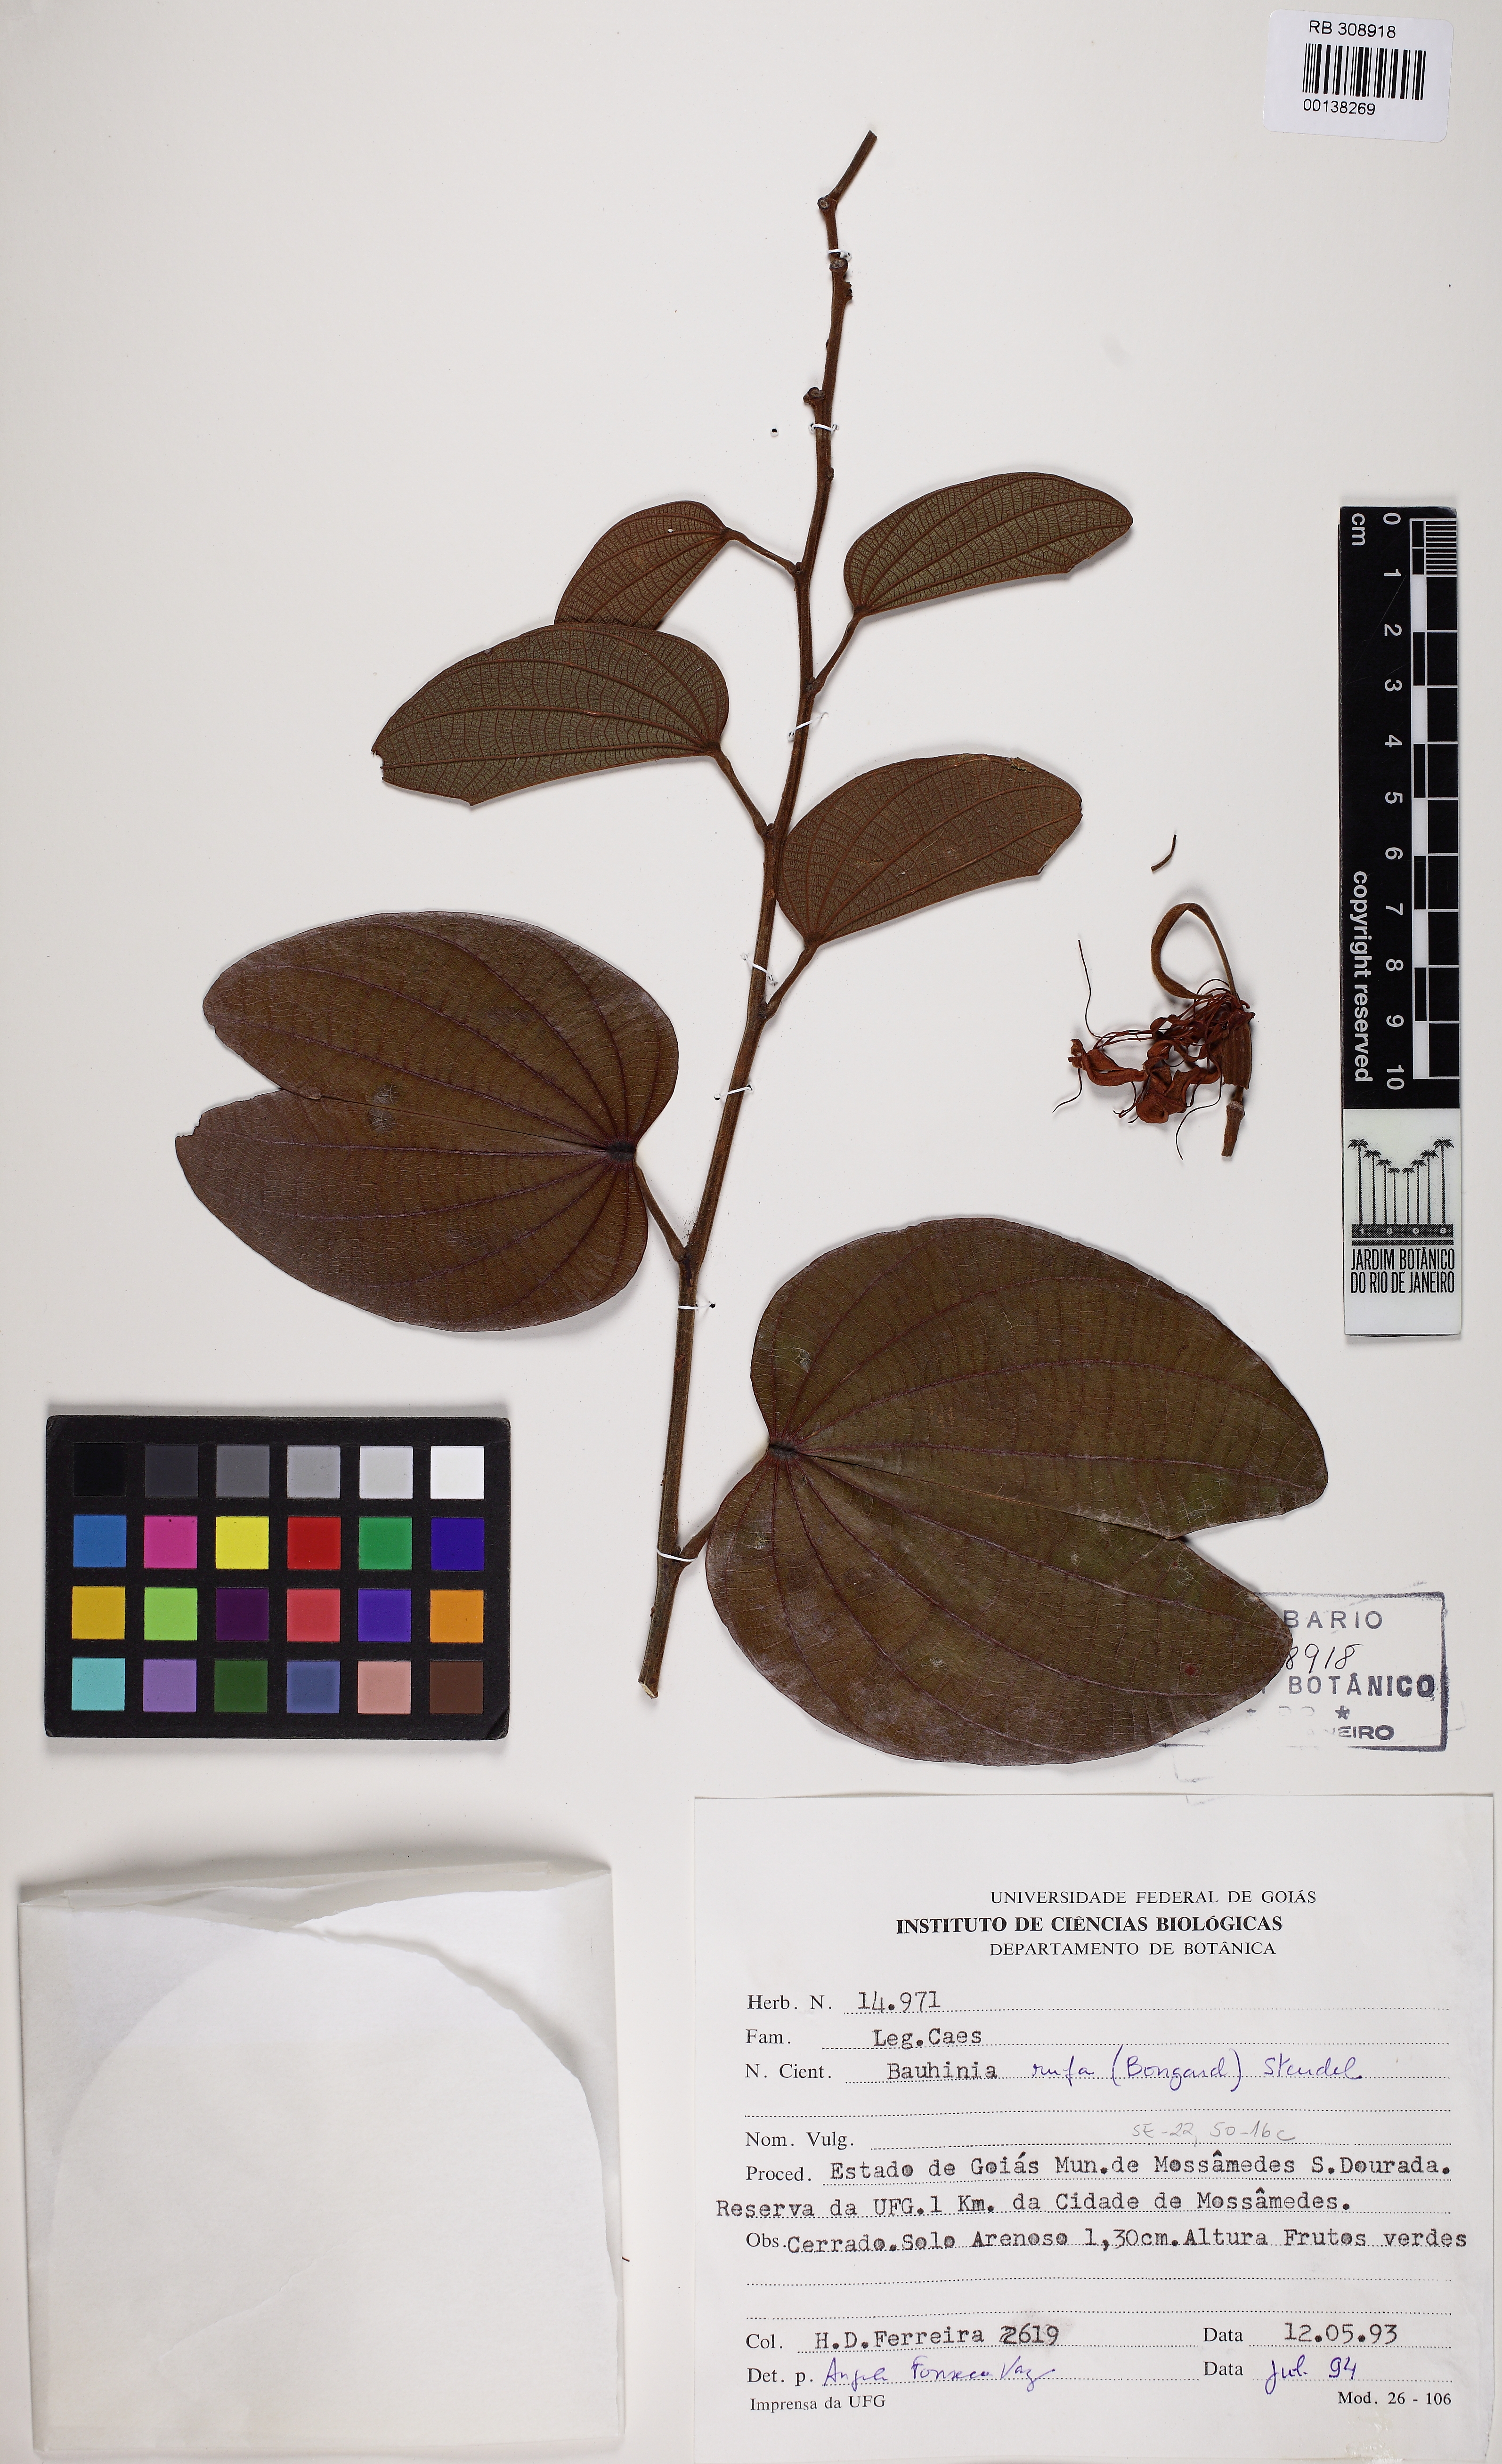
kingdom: Plantae
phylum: Tracheophyta
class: Magnoliopsida
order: Fabales
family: Fabaceae
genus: Bauhinia
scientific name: Bauhinia rufa
